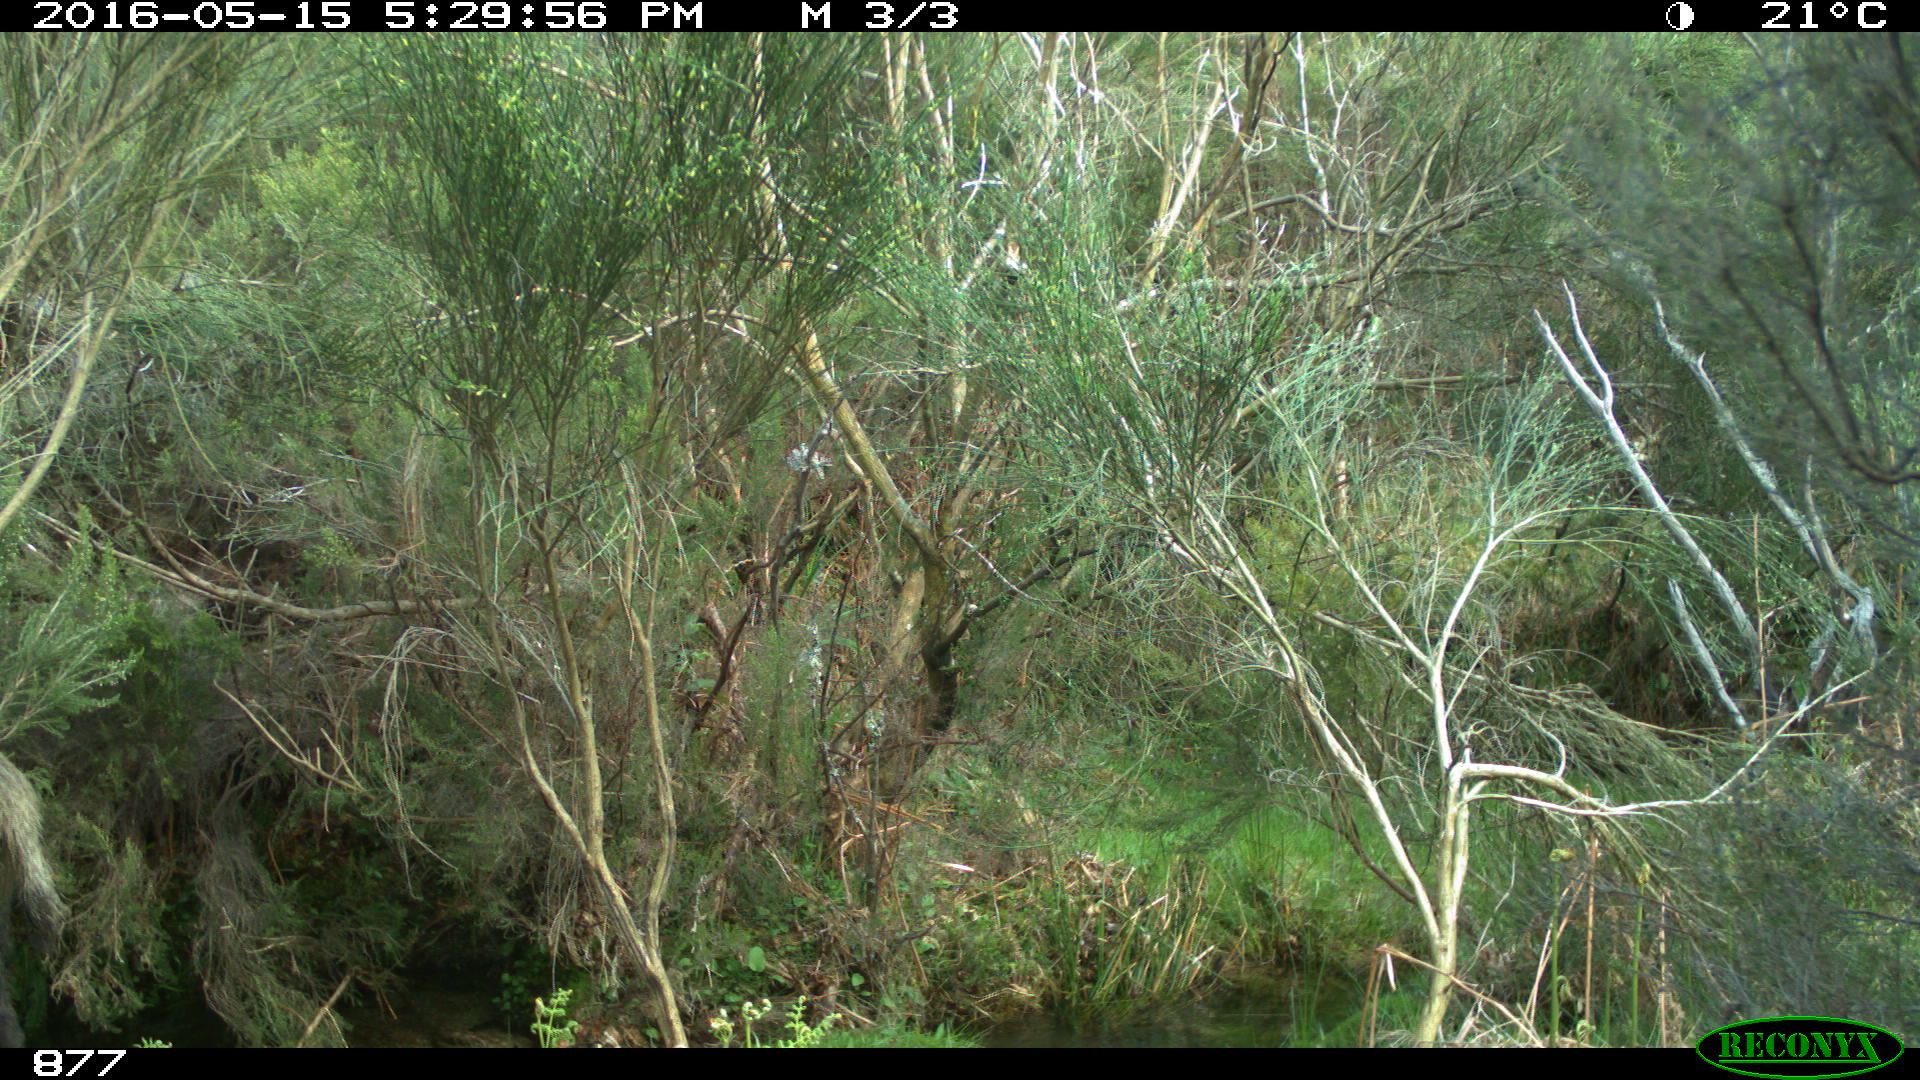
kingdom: Animalia
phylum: Chordata
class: Mammalia
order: Artiodactyla
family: Suidae
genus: Sus
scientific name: Sus scrofa
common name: Wild boar
